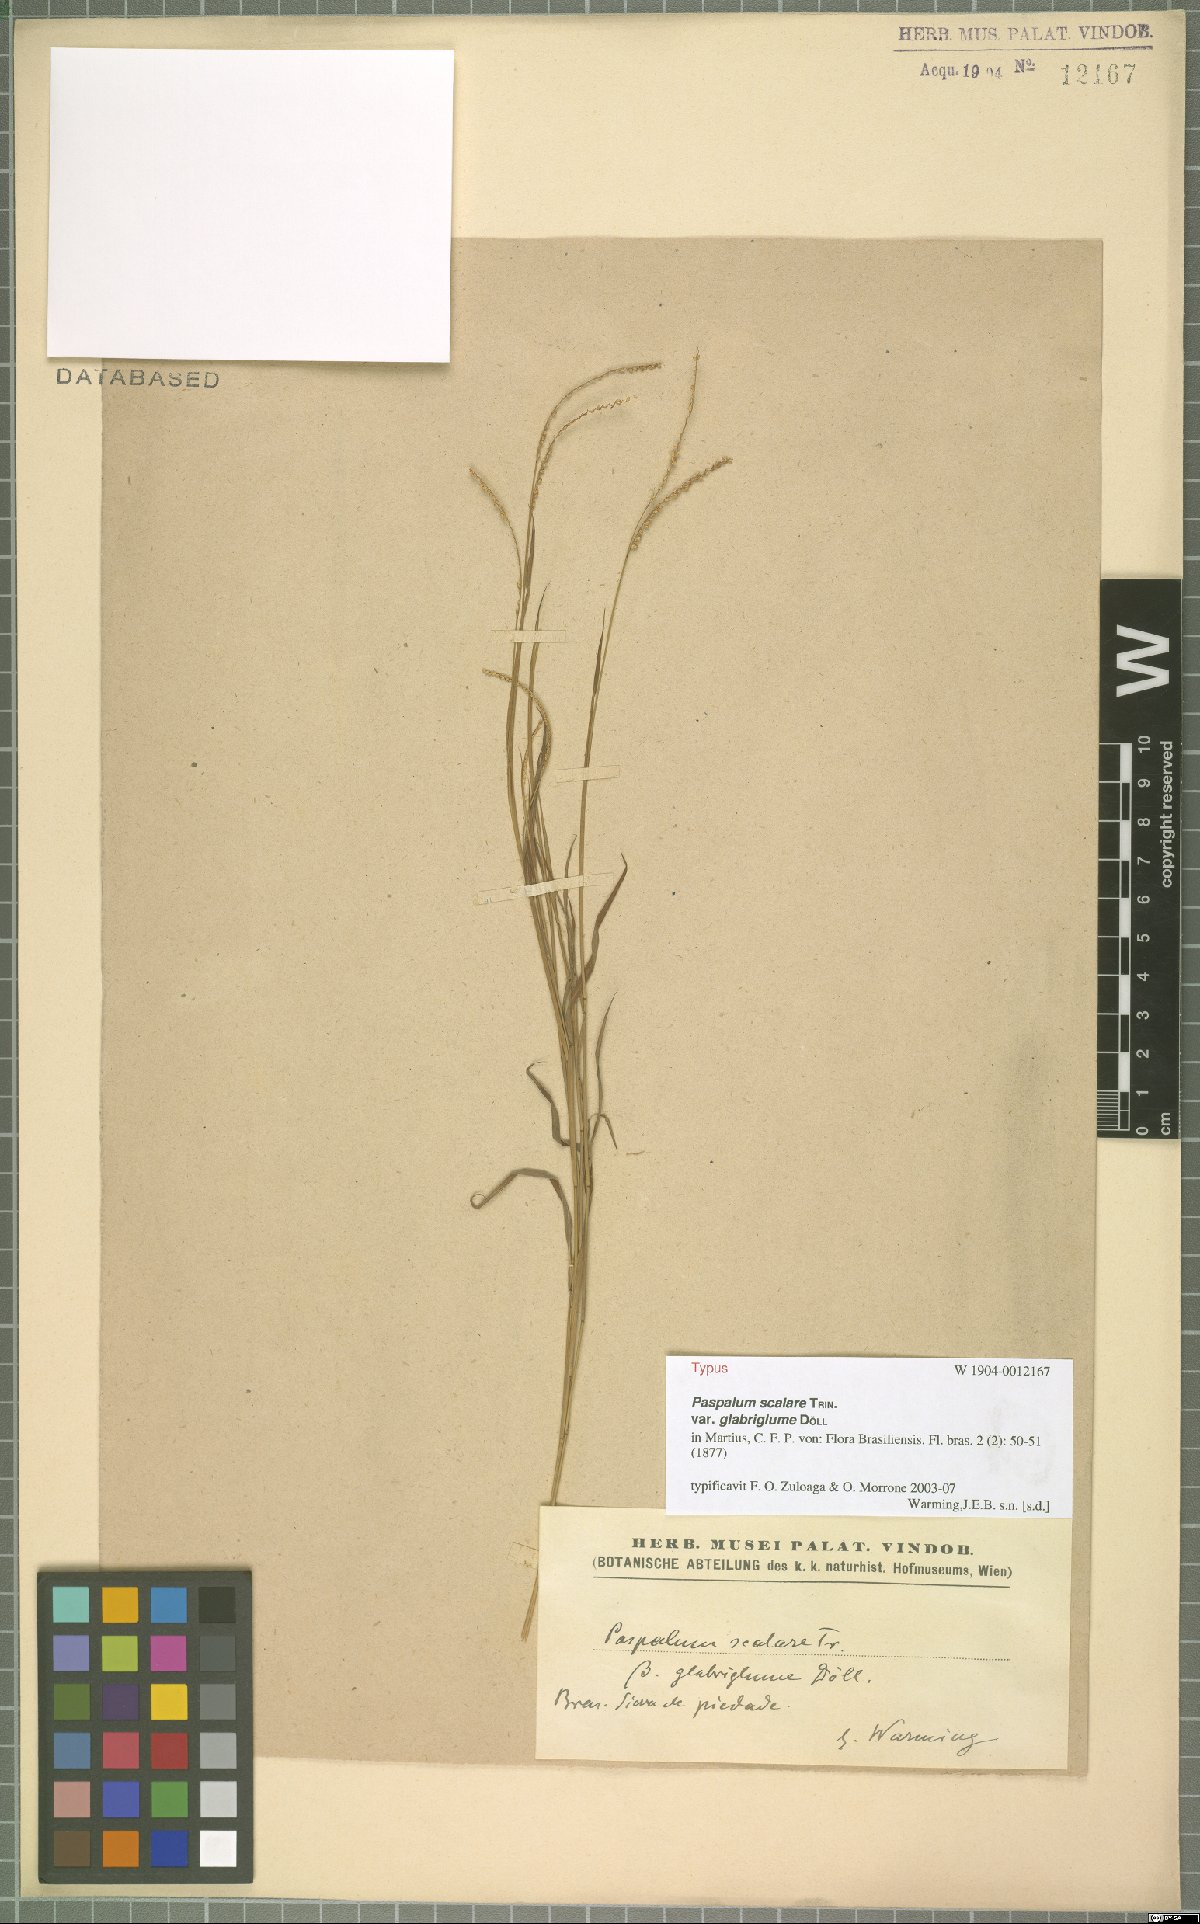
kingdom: Plantae
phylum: Tracheophyta
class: Liliopsida
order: Poales
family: Poaceae
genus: Paspalum
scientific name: Paspalum scalare
